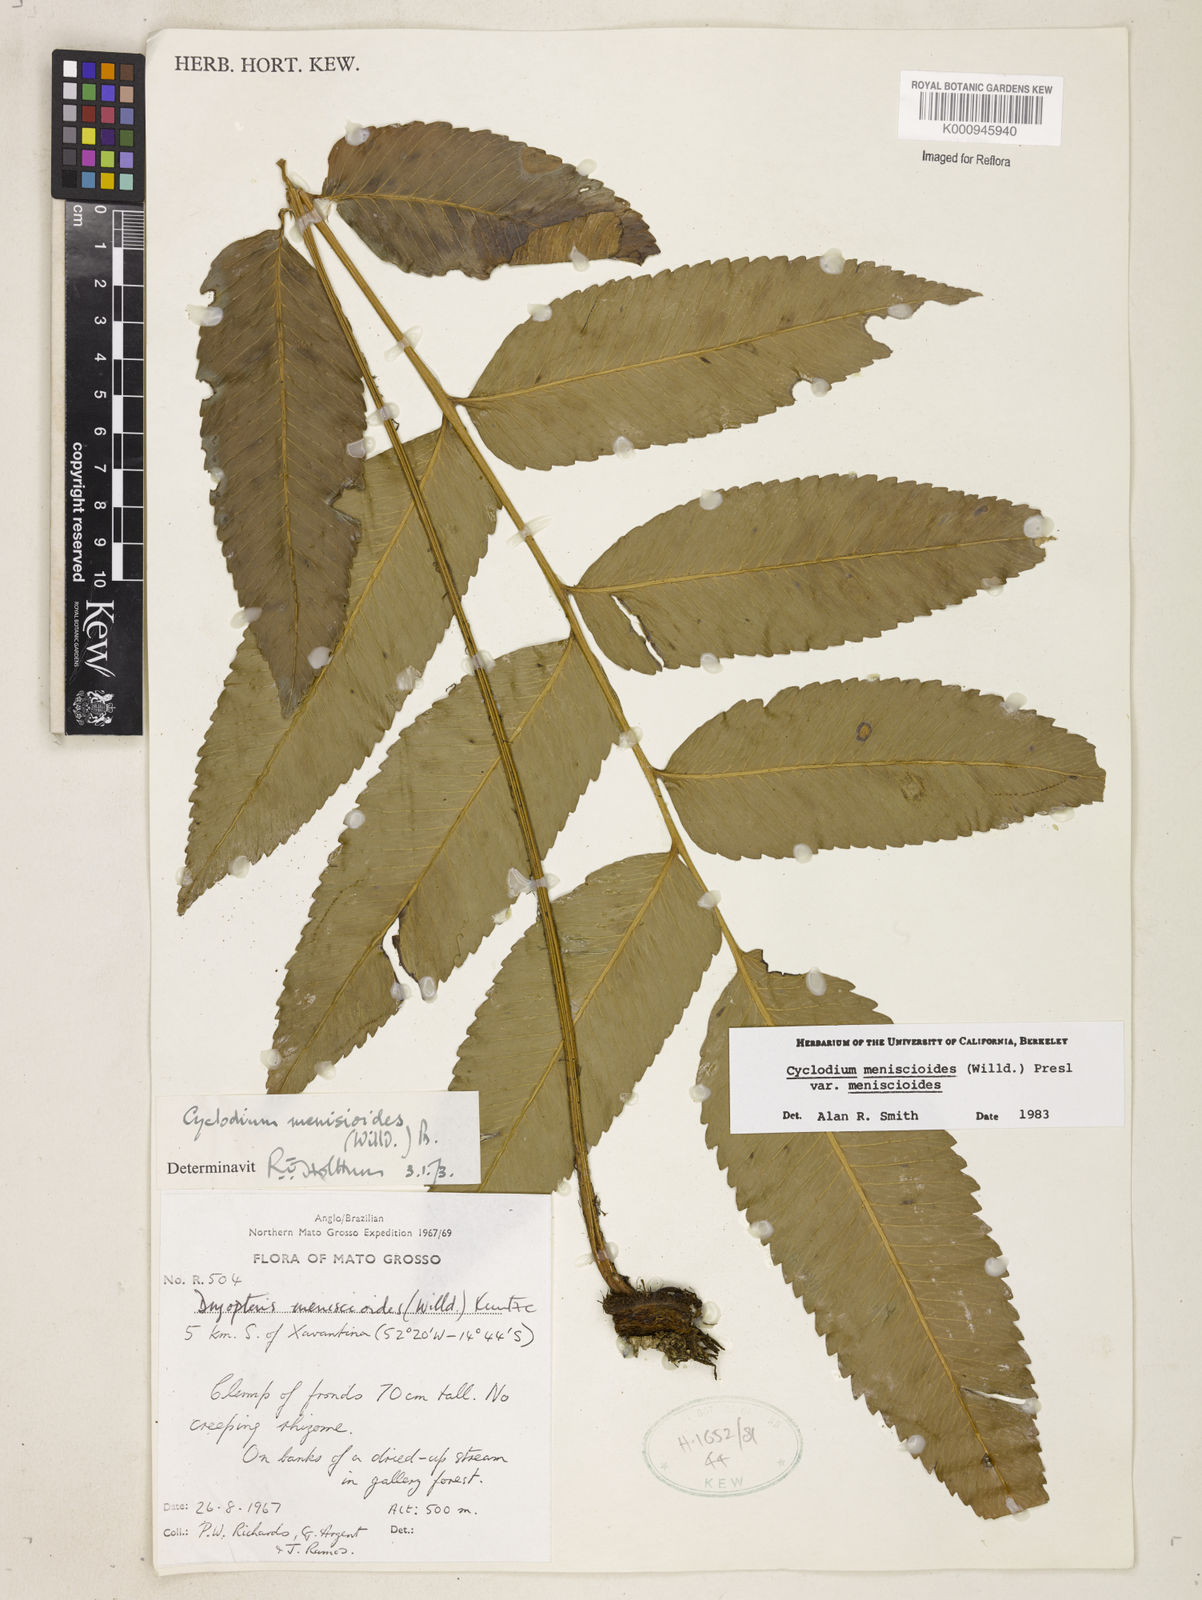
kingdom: Plantae
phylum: Tracheophyta
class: Polypodiopsida
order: Polypodiales
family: Dryopteridaceae
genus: Cyclodium
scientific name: Cyclodium meniscioides
